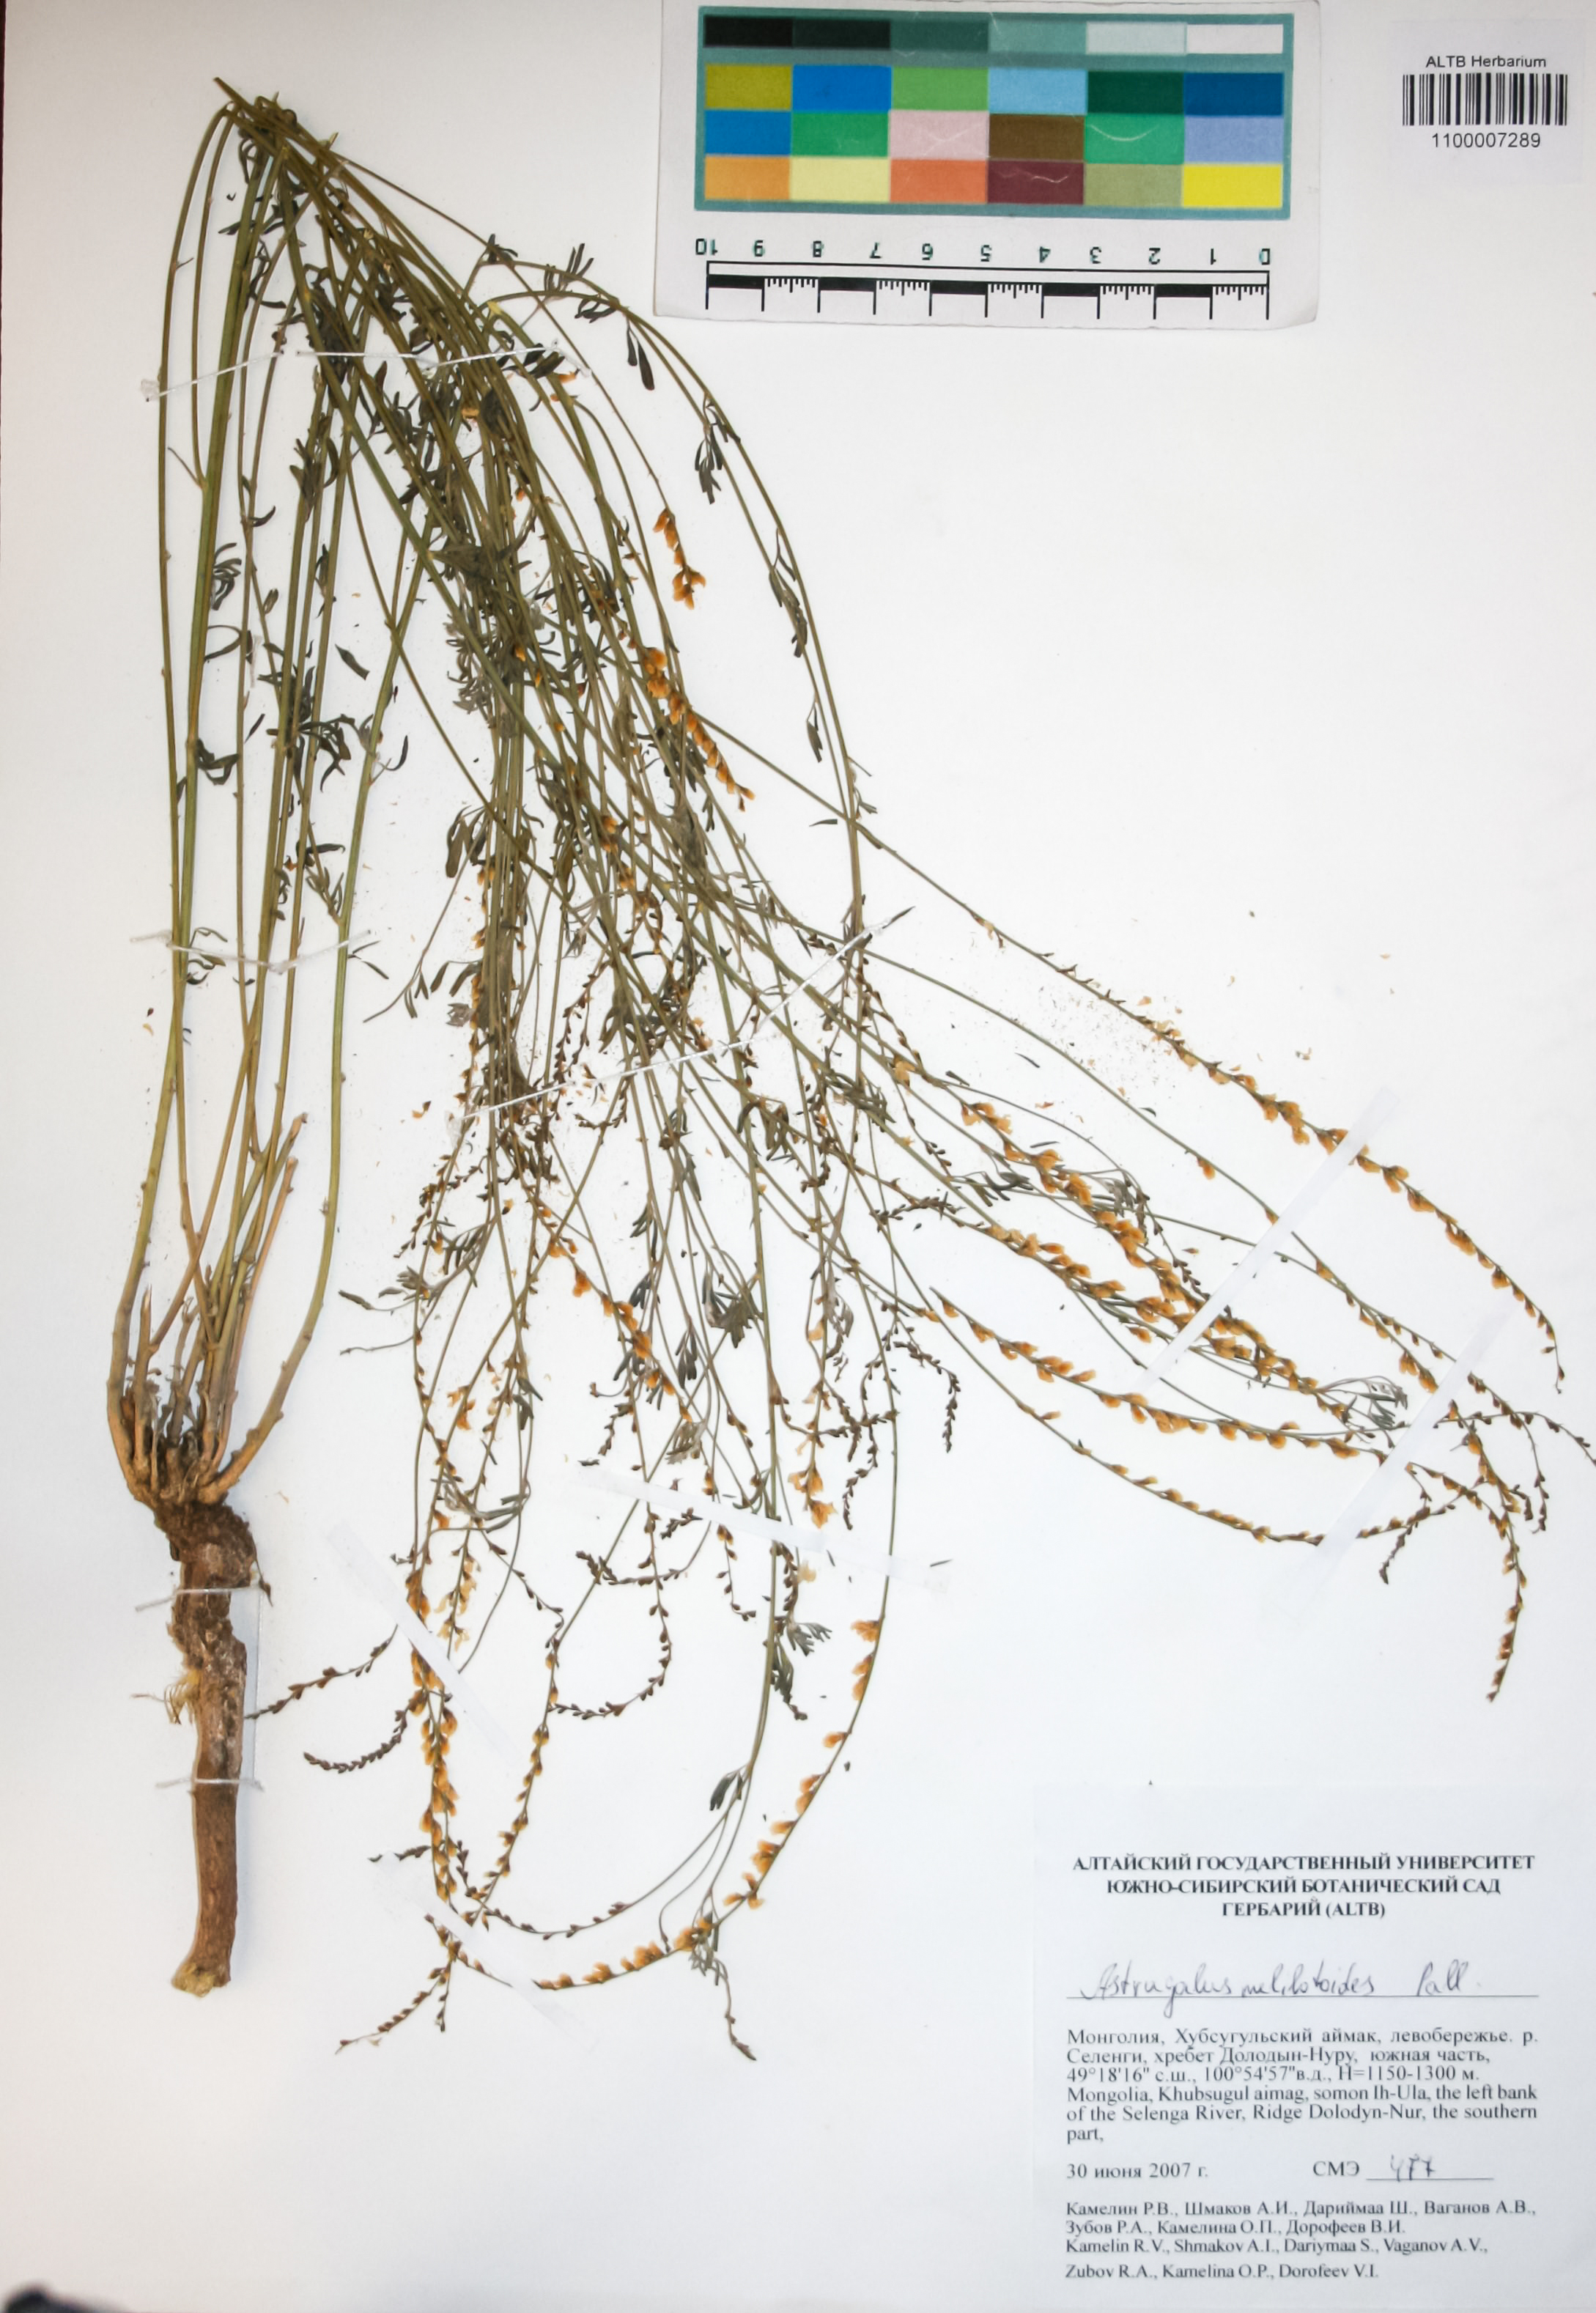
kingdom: Plantae
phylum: Tracheophyta
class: Magnoliopsida
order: Fabales
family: Fabaceae
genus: Astragalus
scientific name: Astragalus melilotoides
